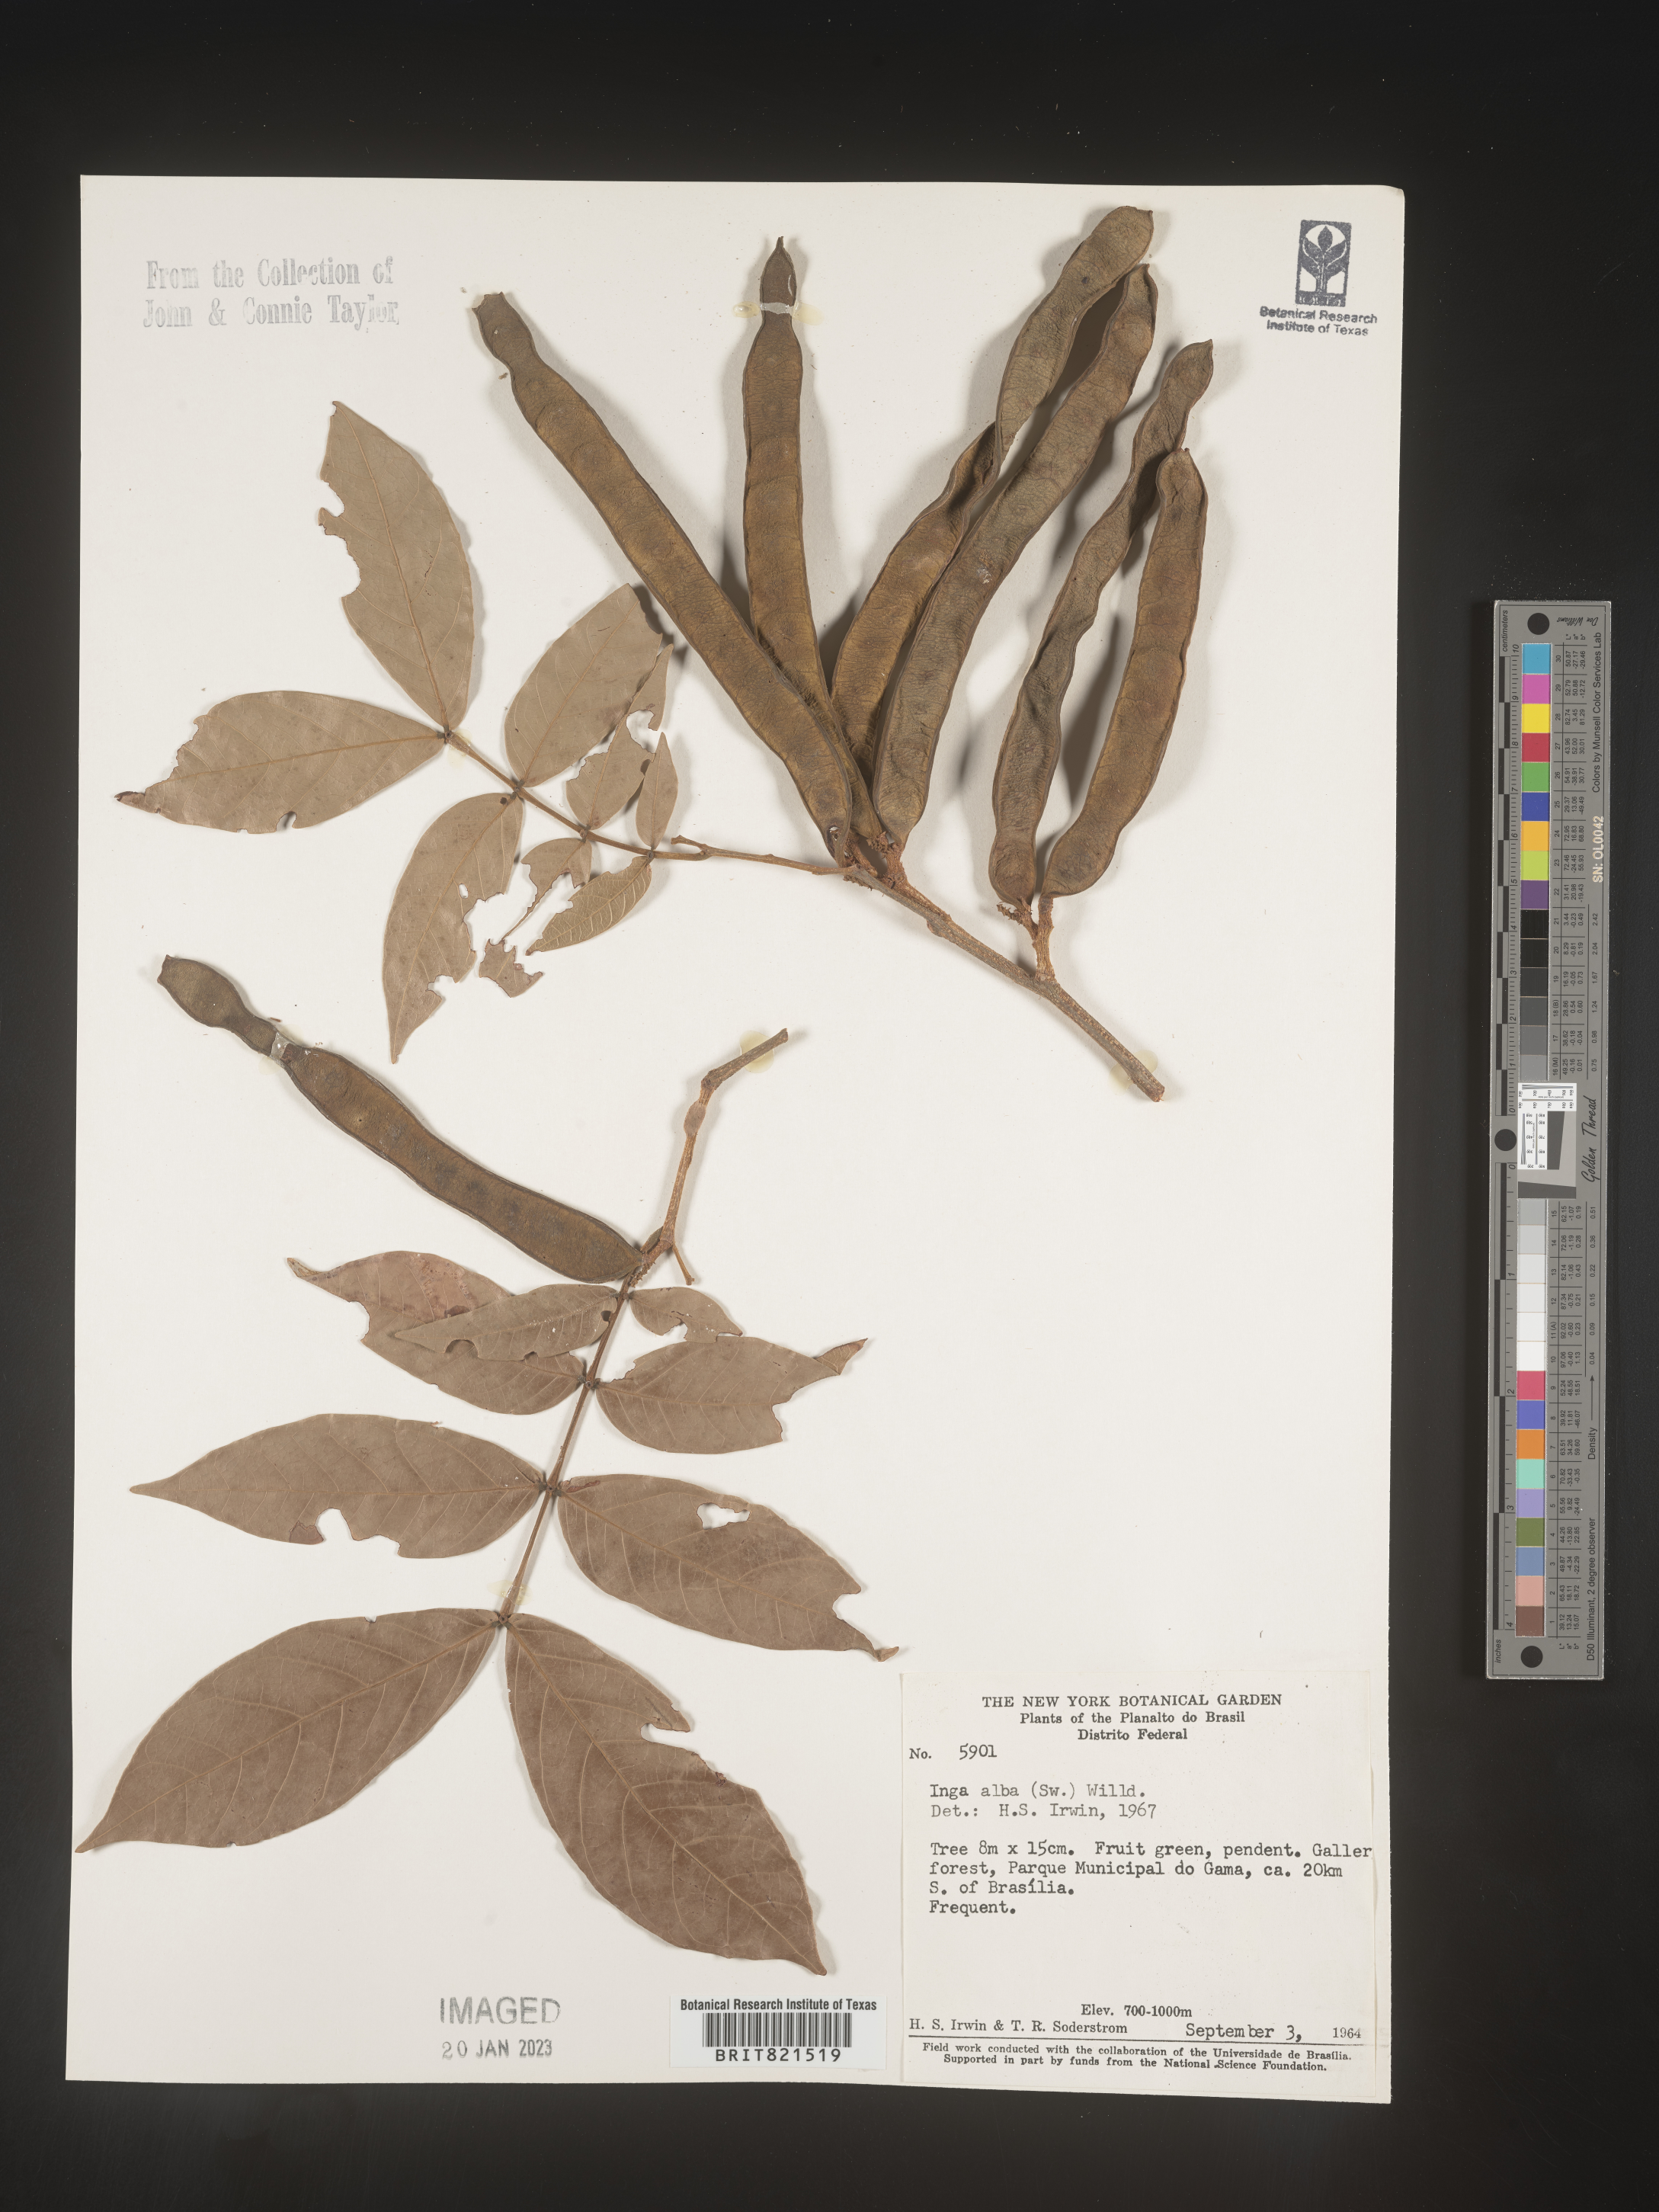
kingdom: Plantae
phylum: Tracheophyta
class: Magnoliopsida
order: Fabales
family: Fabaceae
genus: Inga
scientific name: Inga
